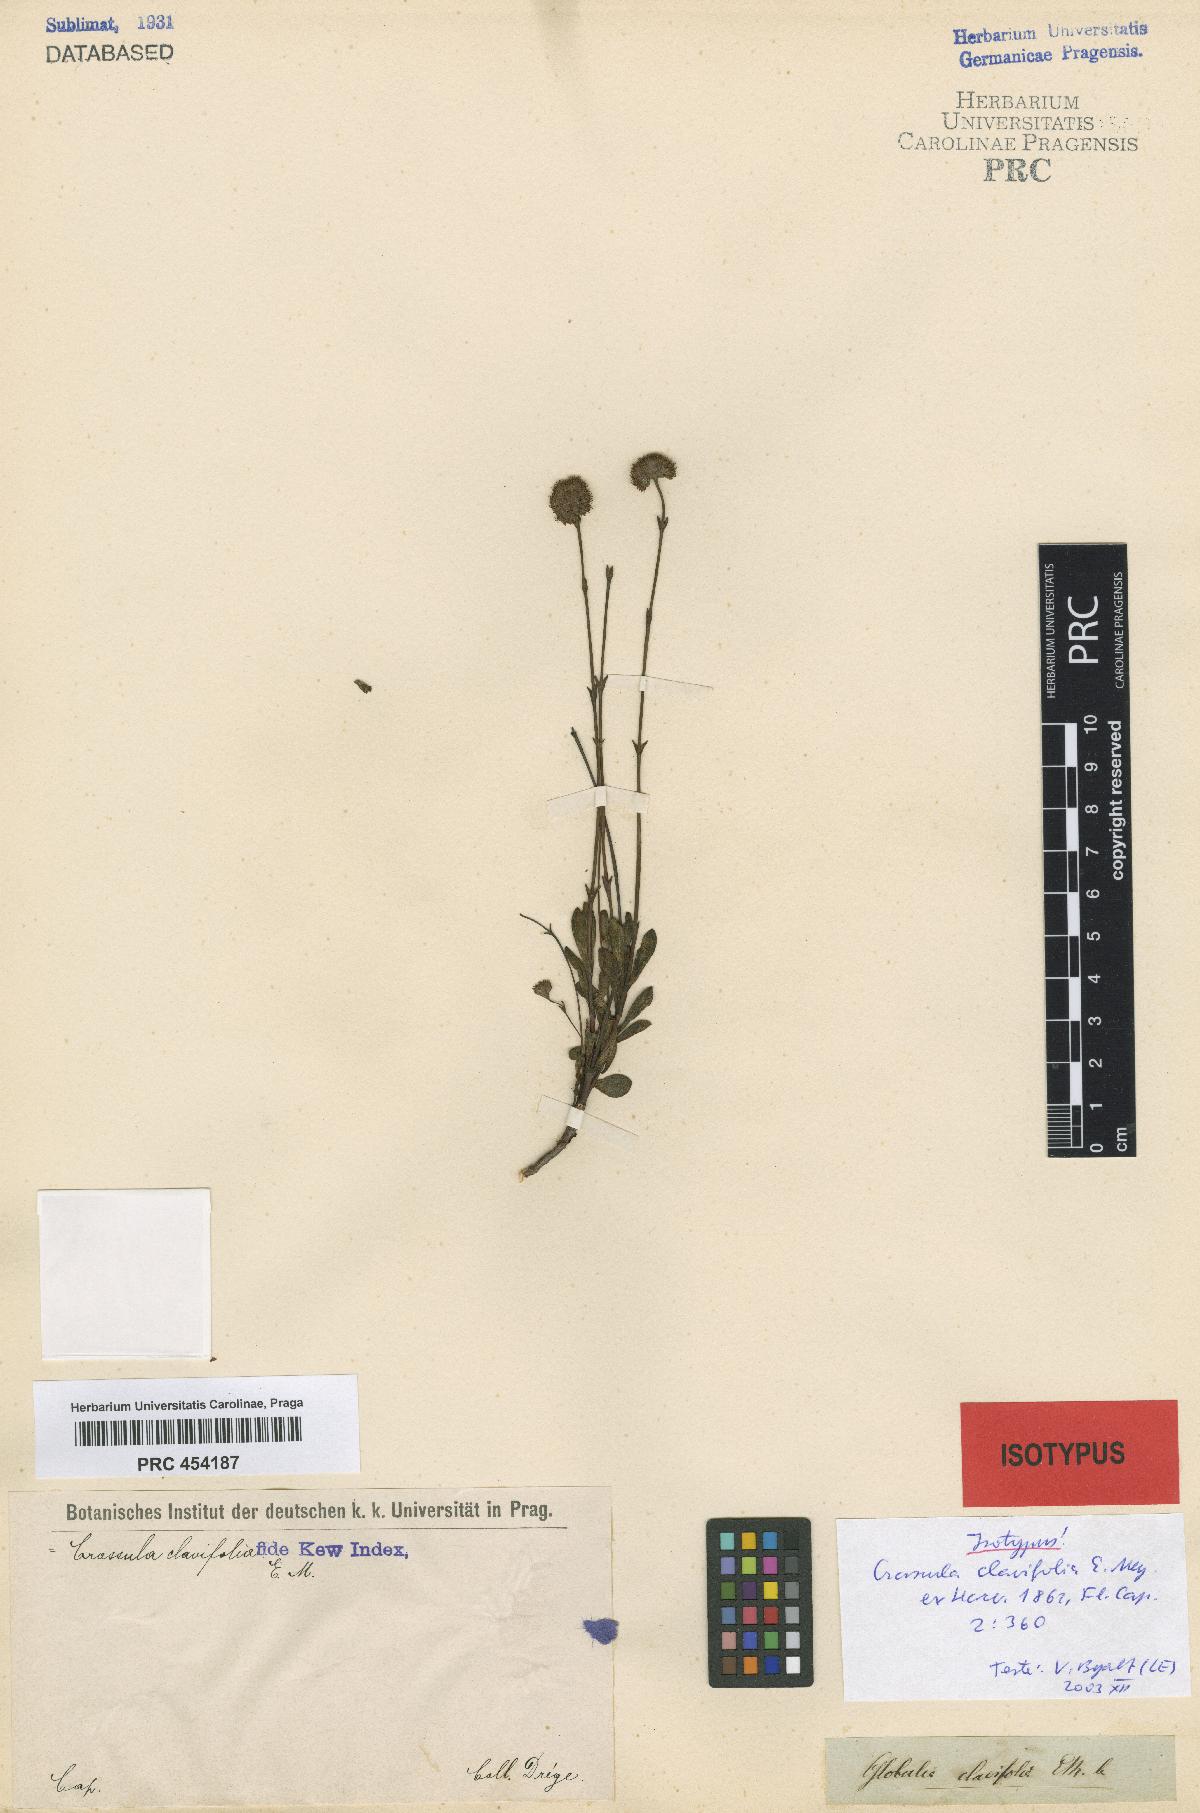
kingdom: Plantae
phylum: Tracheophyta
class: Magnoliopsida
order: Saxifragales
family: Crassulaceae
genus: Crassula
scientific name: Crassula atropurpurea
